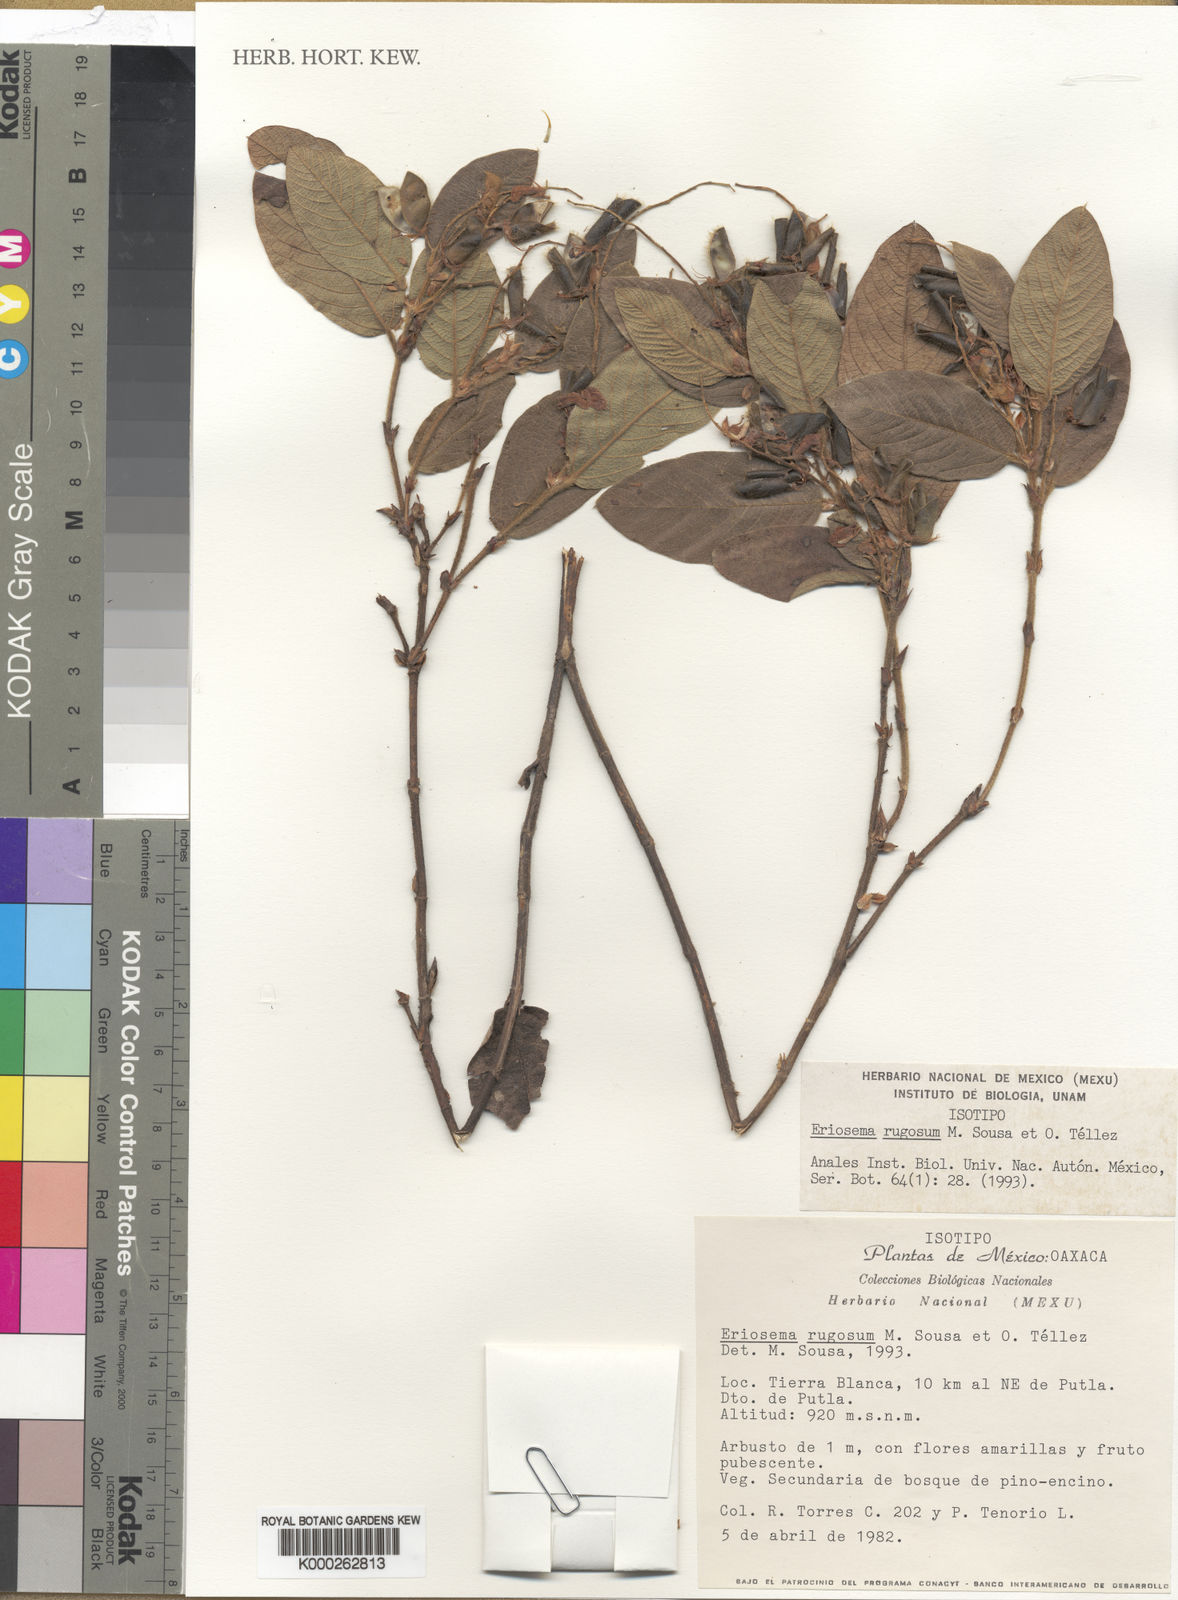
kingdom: Plantae
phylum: Tracheophyta
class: Magnoliopsida
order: Fabales
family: Fabaceae
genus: Eriosema
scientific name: Eriosema rugosum
